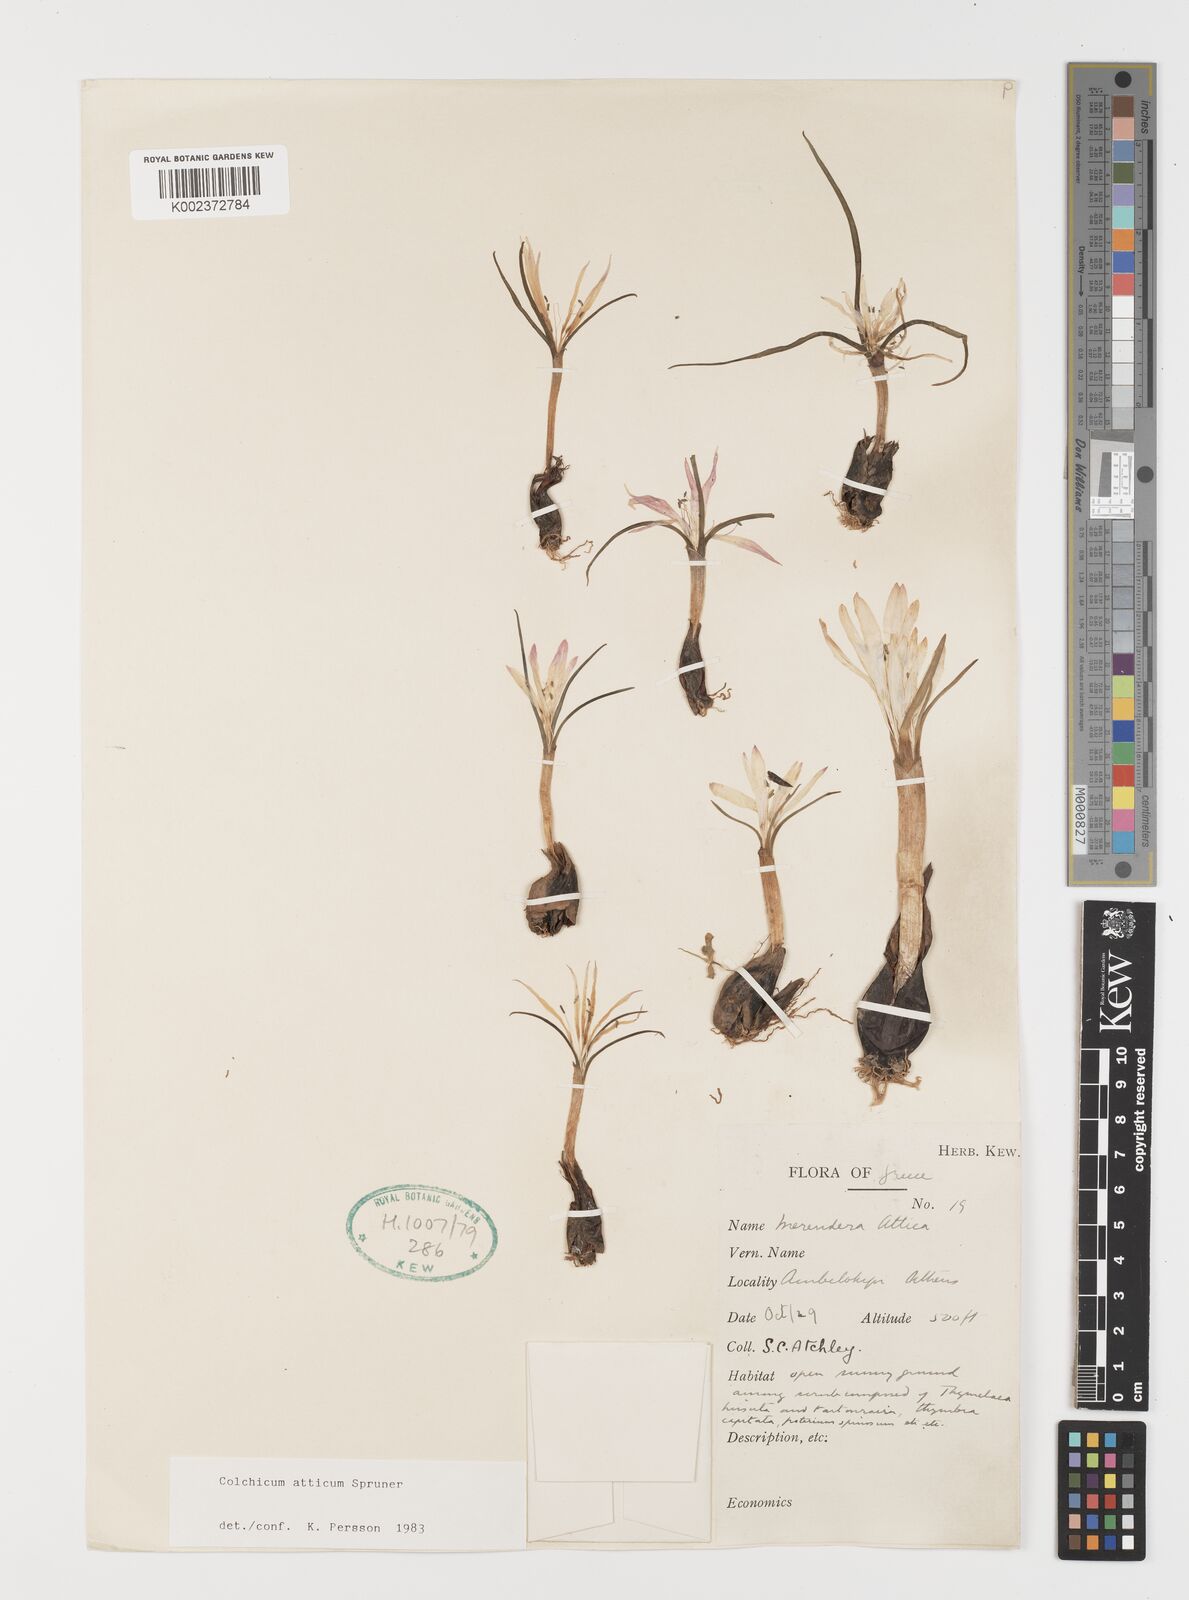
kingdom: Plantae
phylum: Tracheophyta
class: Liliopsida
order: Liliales
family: Colchicaceae
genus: Colchicum
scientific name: Colchicum atticum
